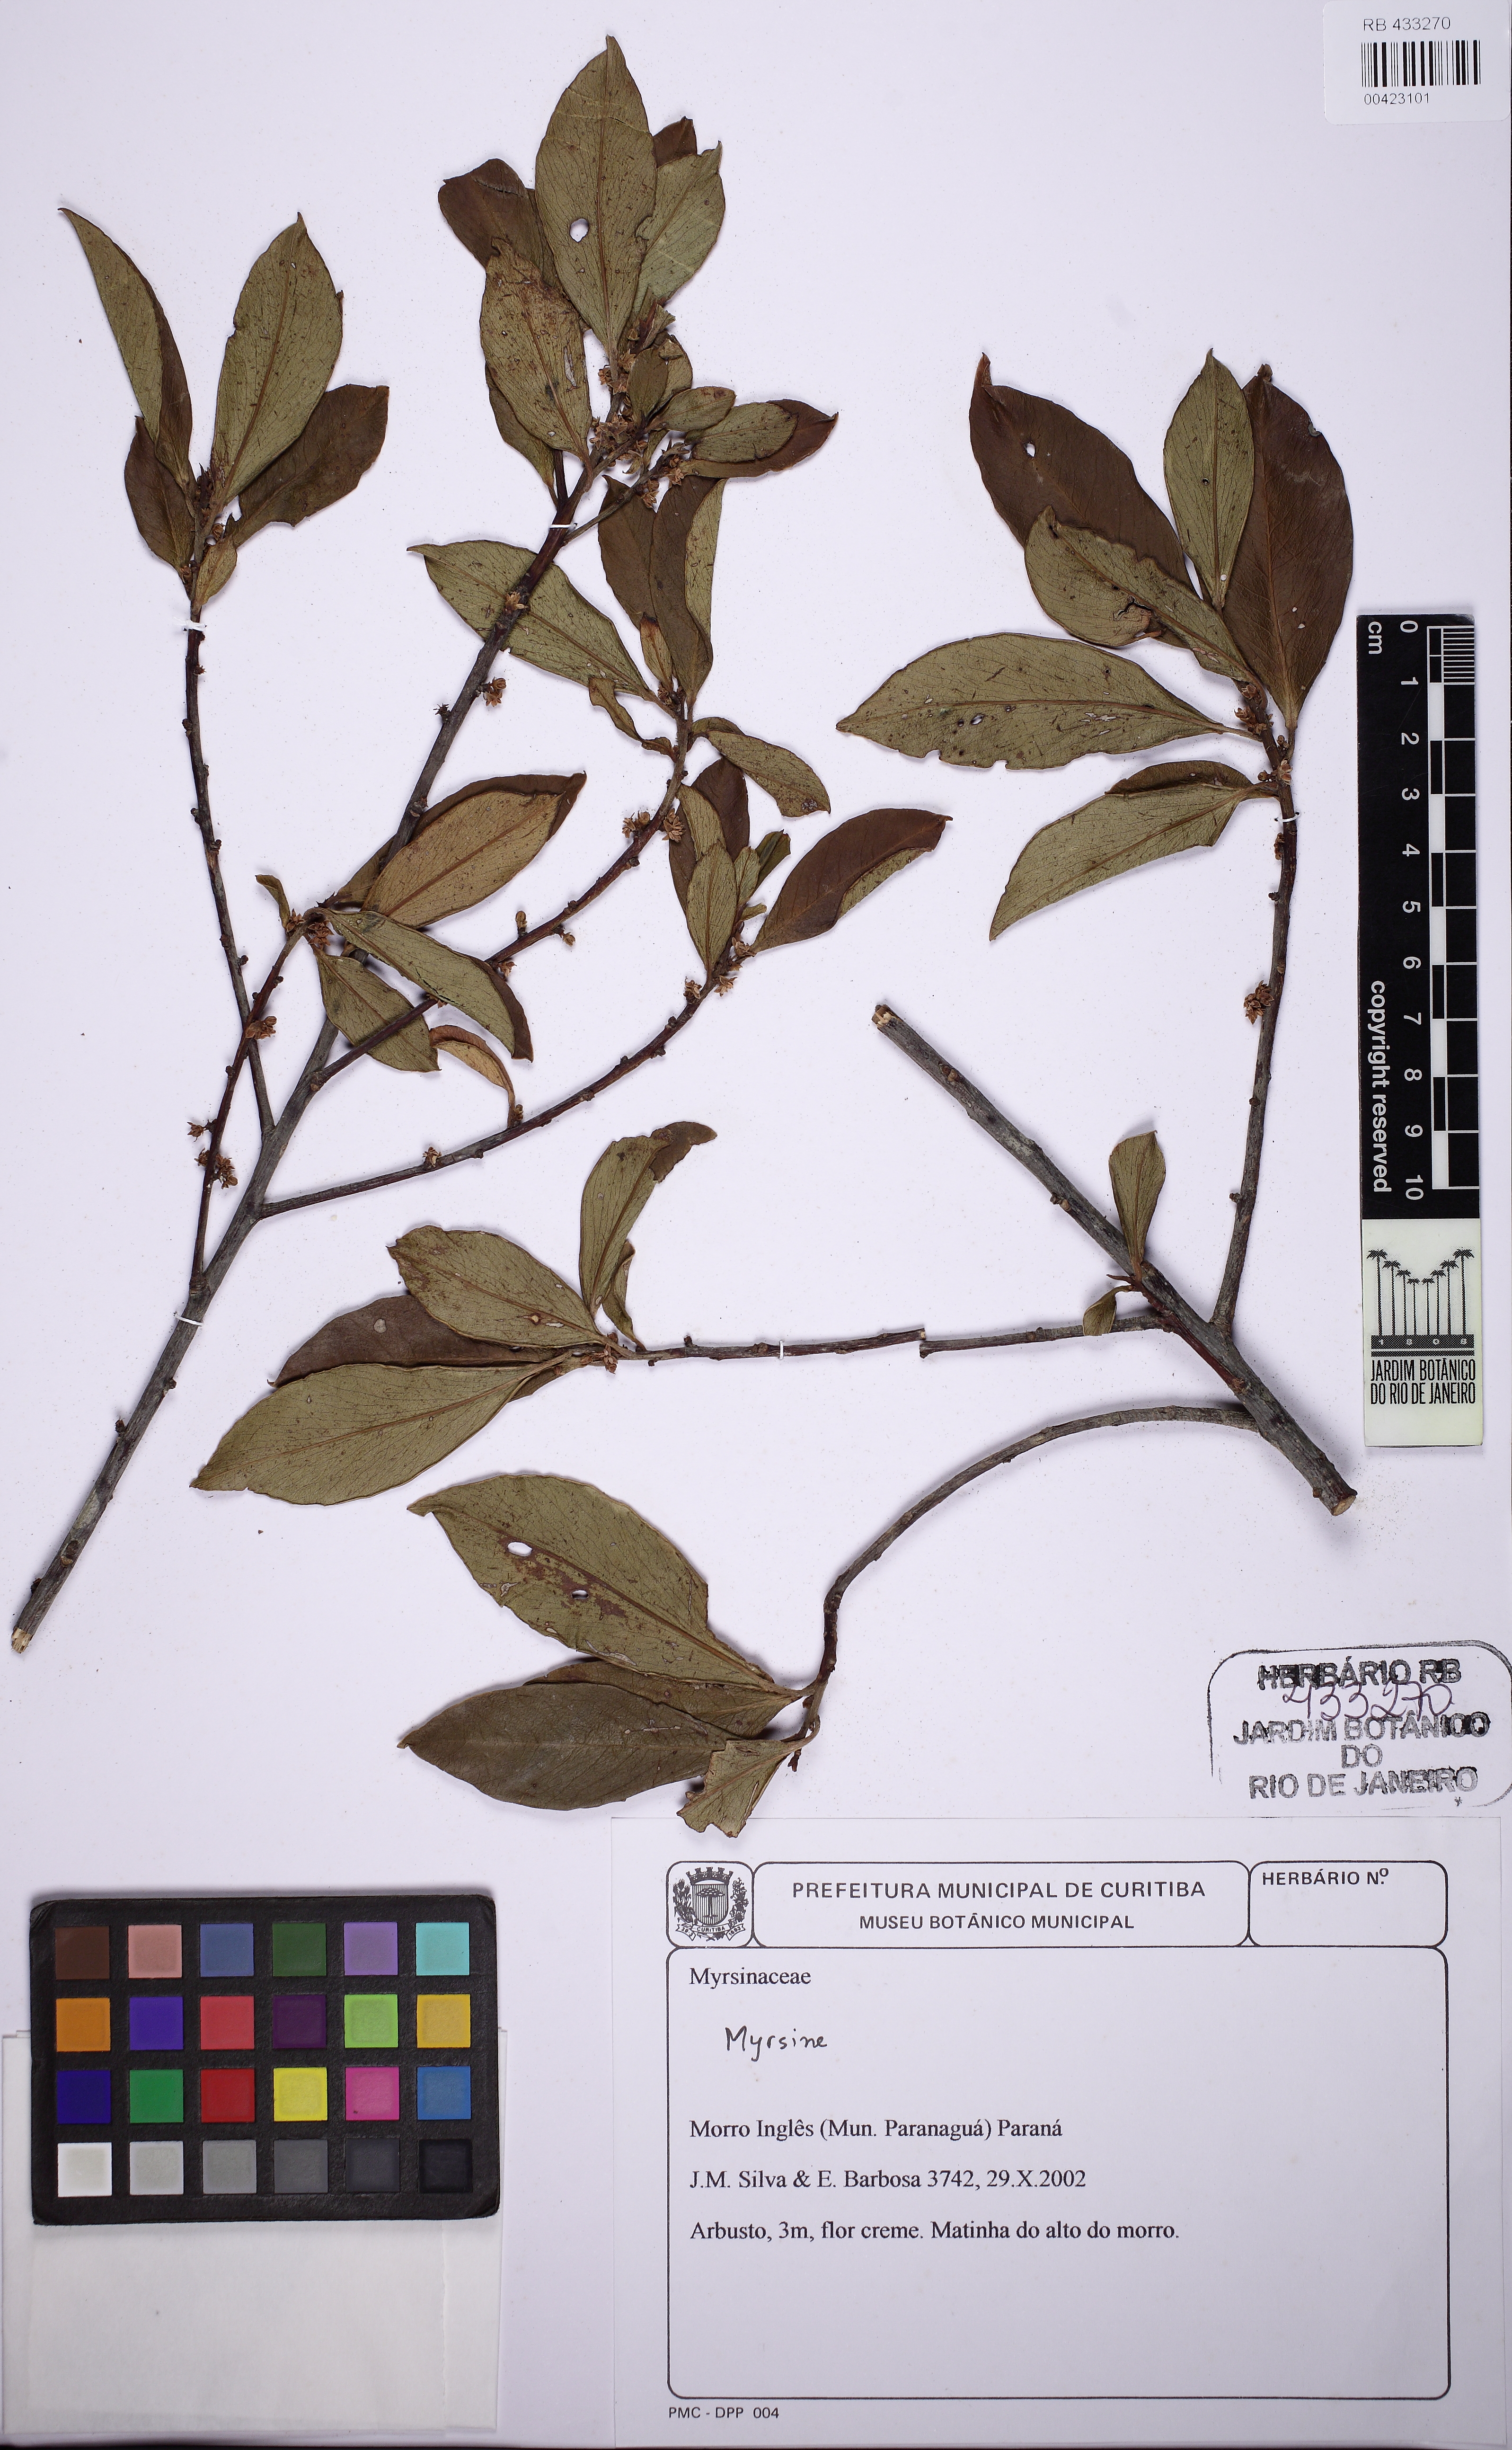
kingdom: Plantae
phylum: Tracheophyta
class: Magnoliopsida
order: Ericales
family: Primulaceae
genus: Myrsine
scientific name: Myrsine
